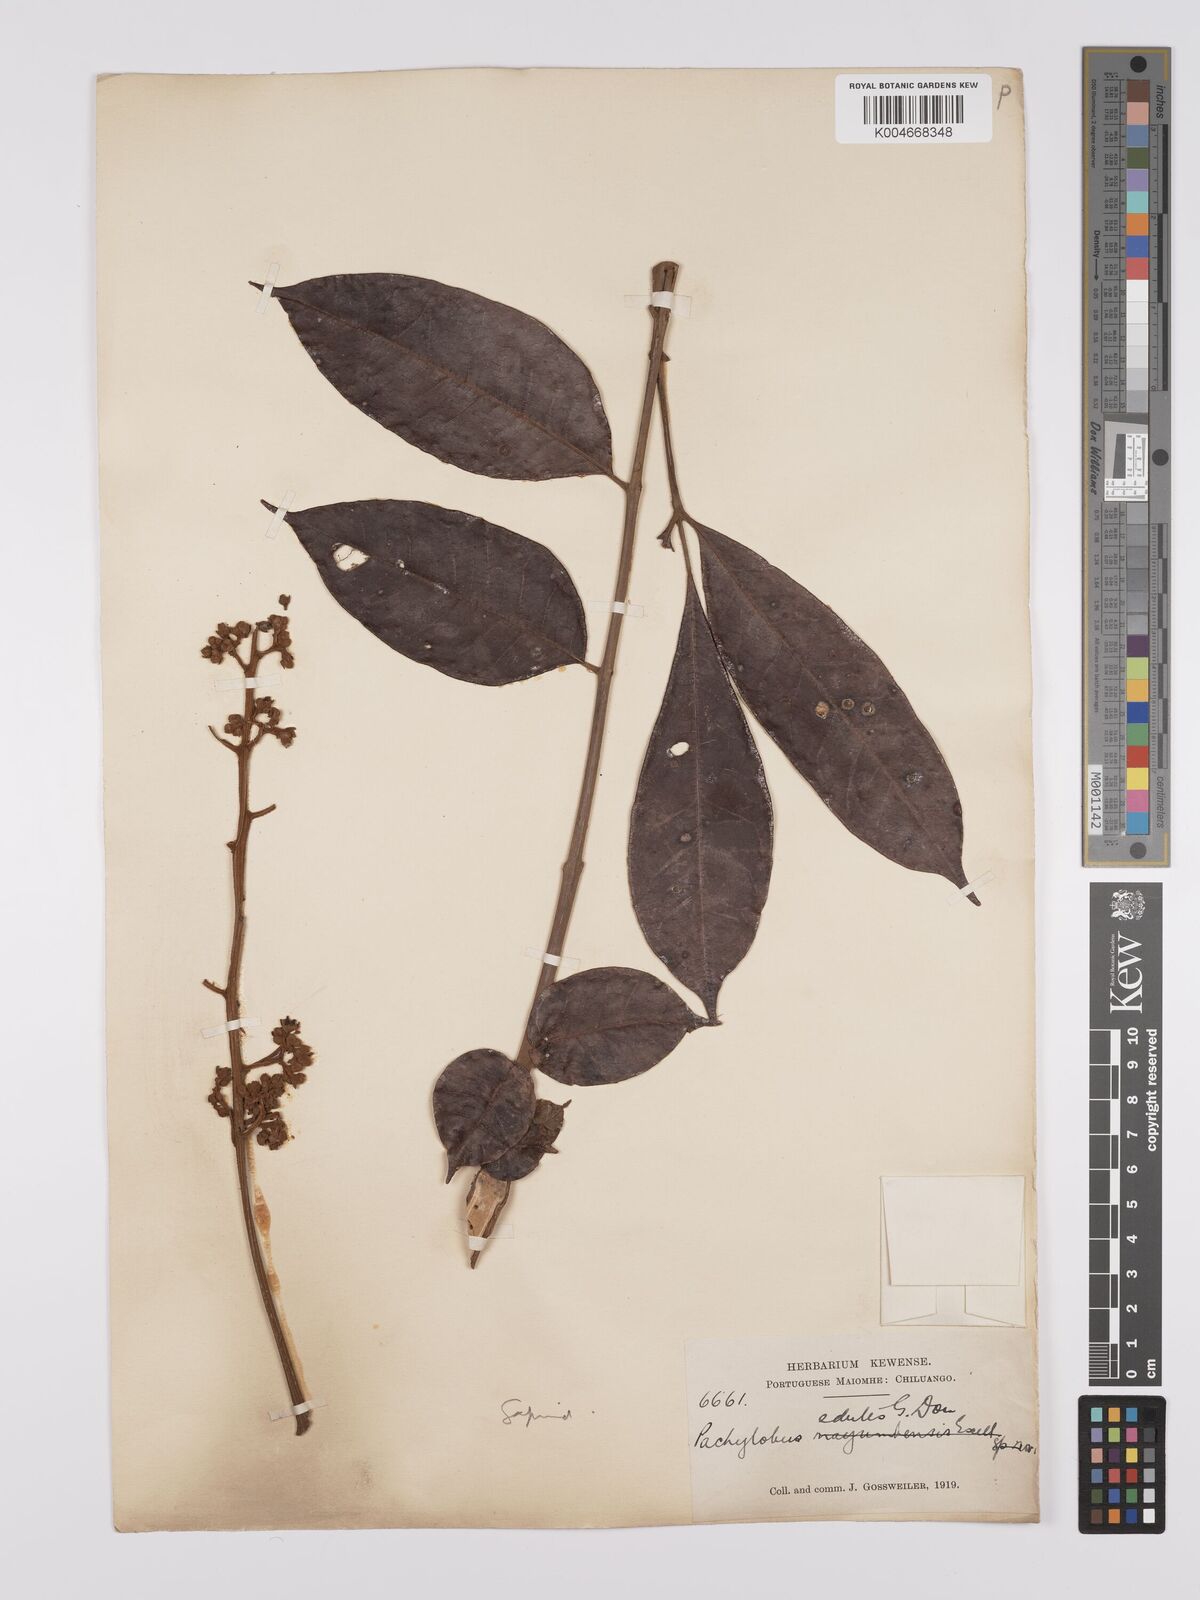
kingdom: Plantae
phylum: Tracheophyta
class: Magnoliopsida
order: Sapindales
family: Burseraceae
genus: Pachylobus
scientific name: Pachylobus edulis
